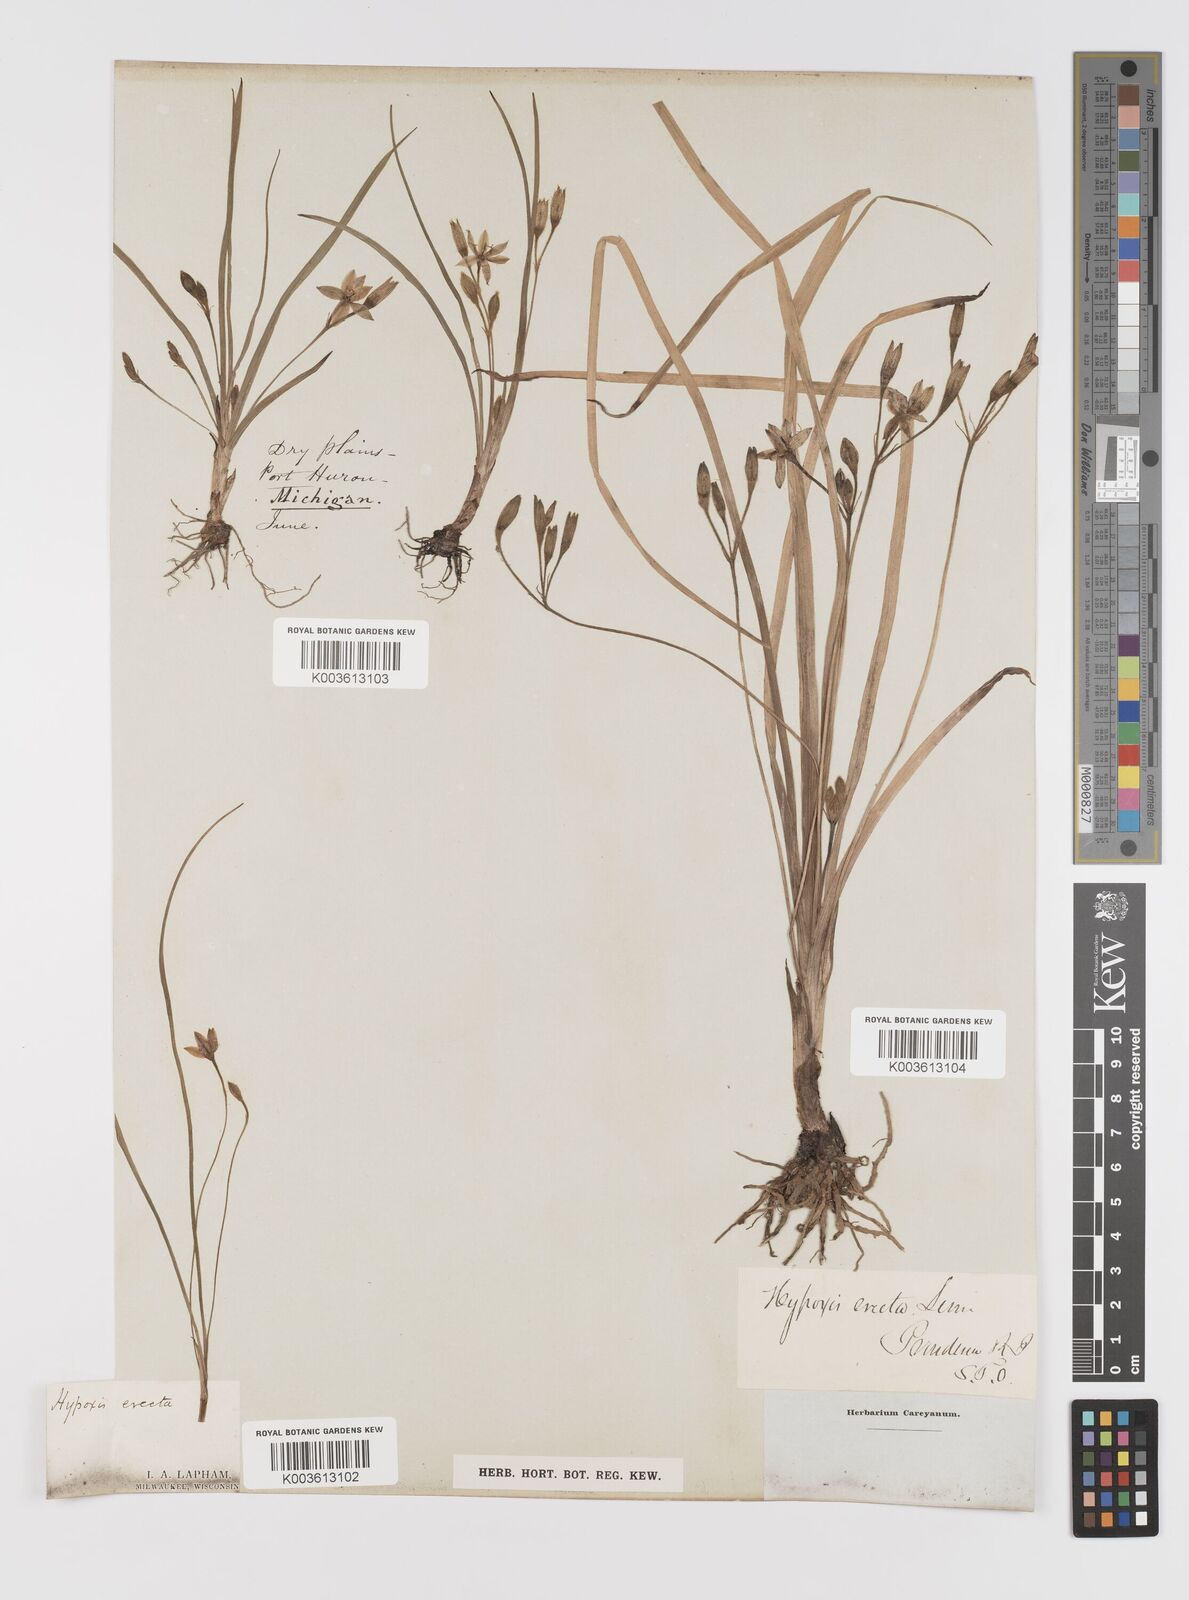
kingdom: Plantae
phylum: Tracheophyta
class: Liliopsida
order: Asparagales
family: Hypoxidaceae
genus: Hypoxis
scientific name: Hypoxis hirsuta
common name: Common goldstar
